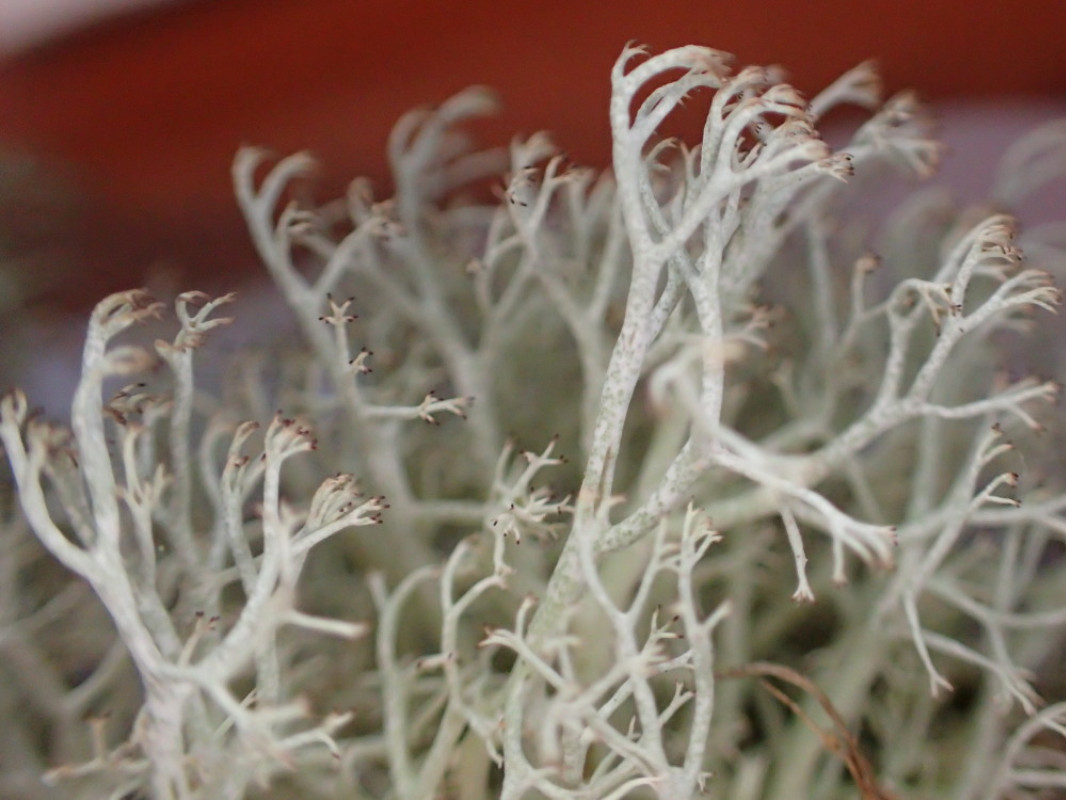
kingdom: Fungi
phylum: Ascomycota
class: Lecanoromycetes
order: Lecanorales
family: Cladoniaceae
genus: Cladonia
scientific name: Cladonia ciliata
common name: spinkel rensdyrlav
